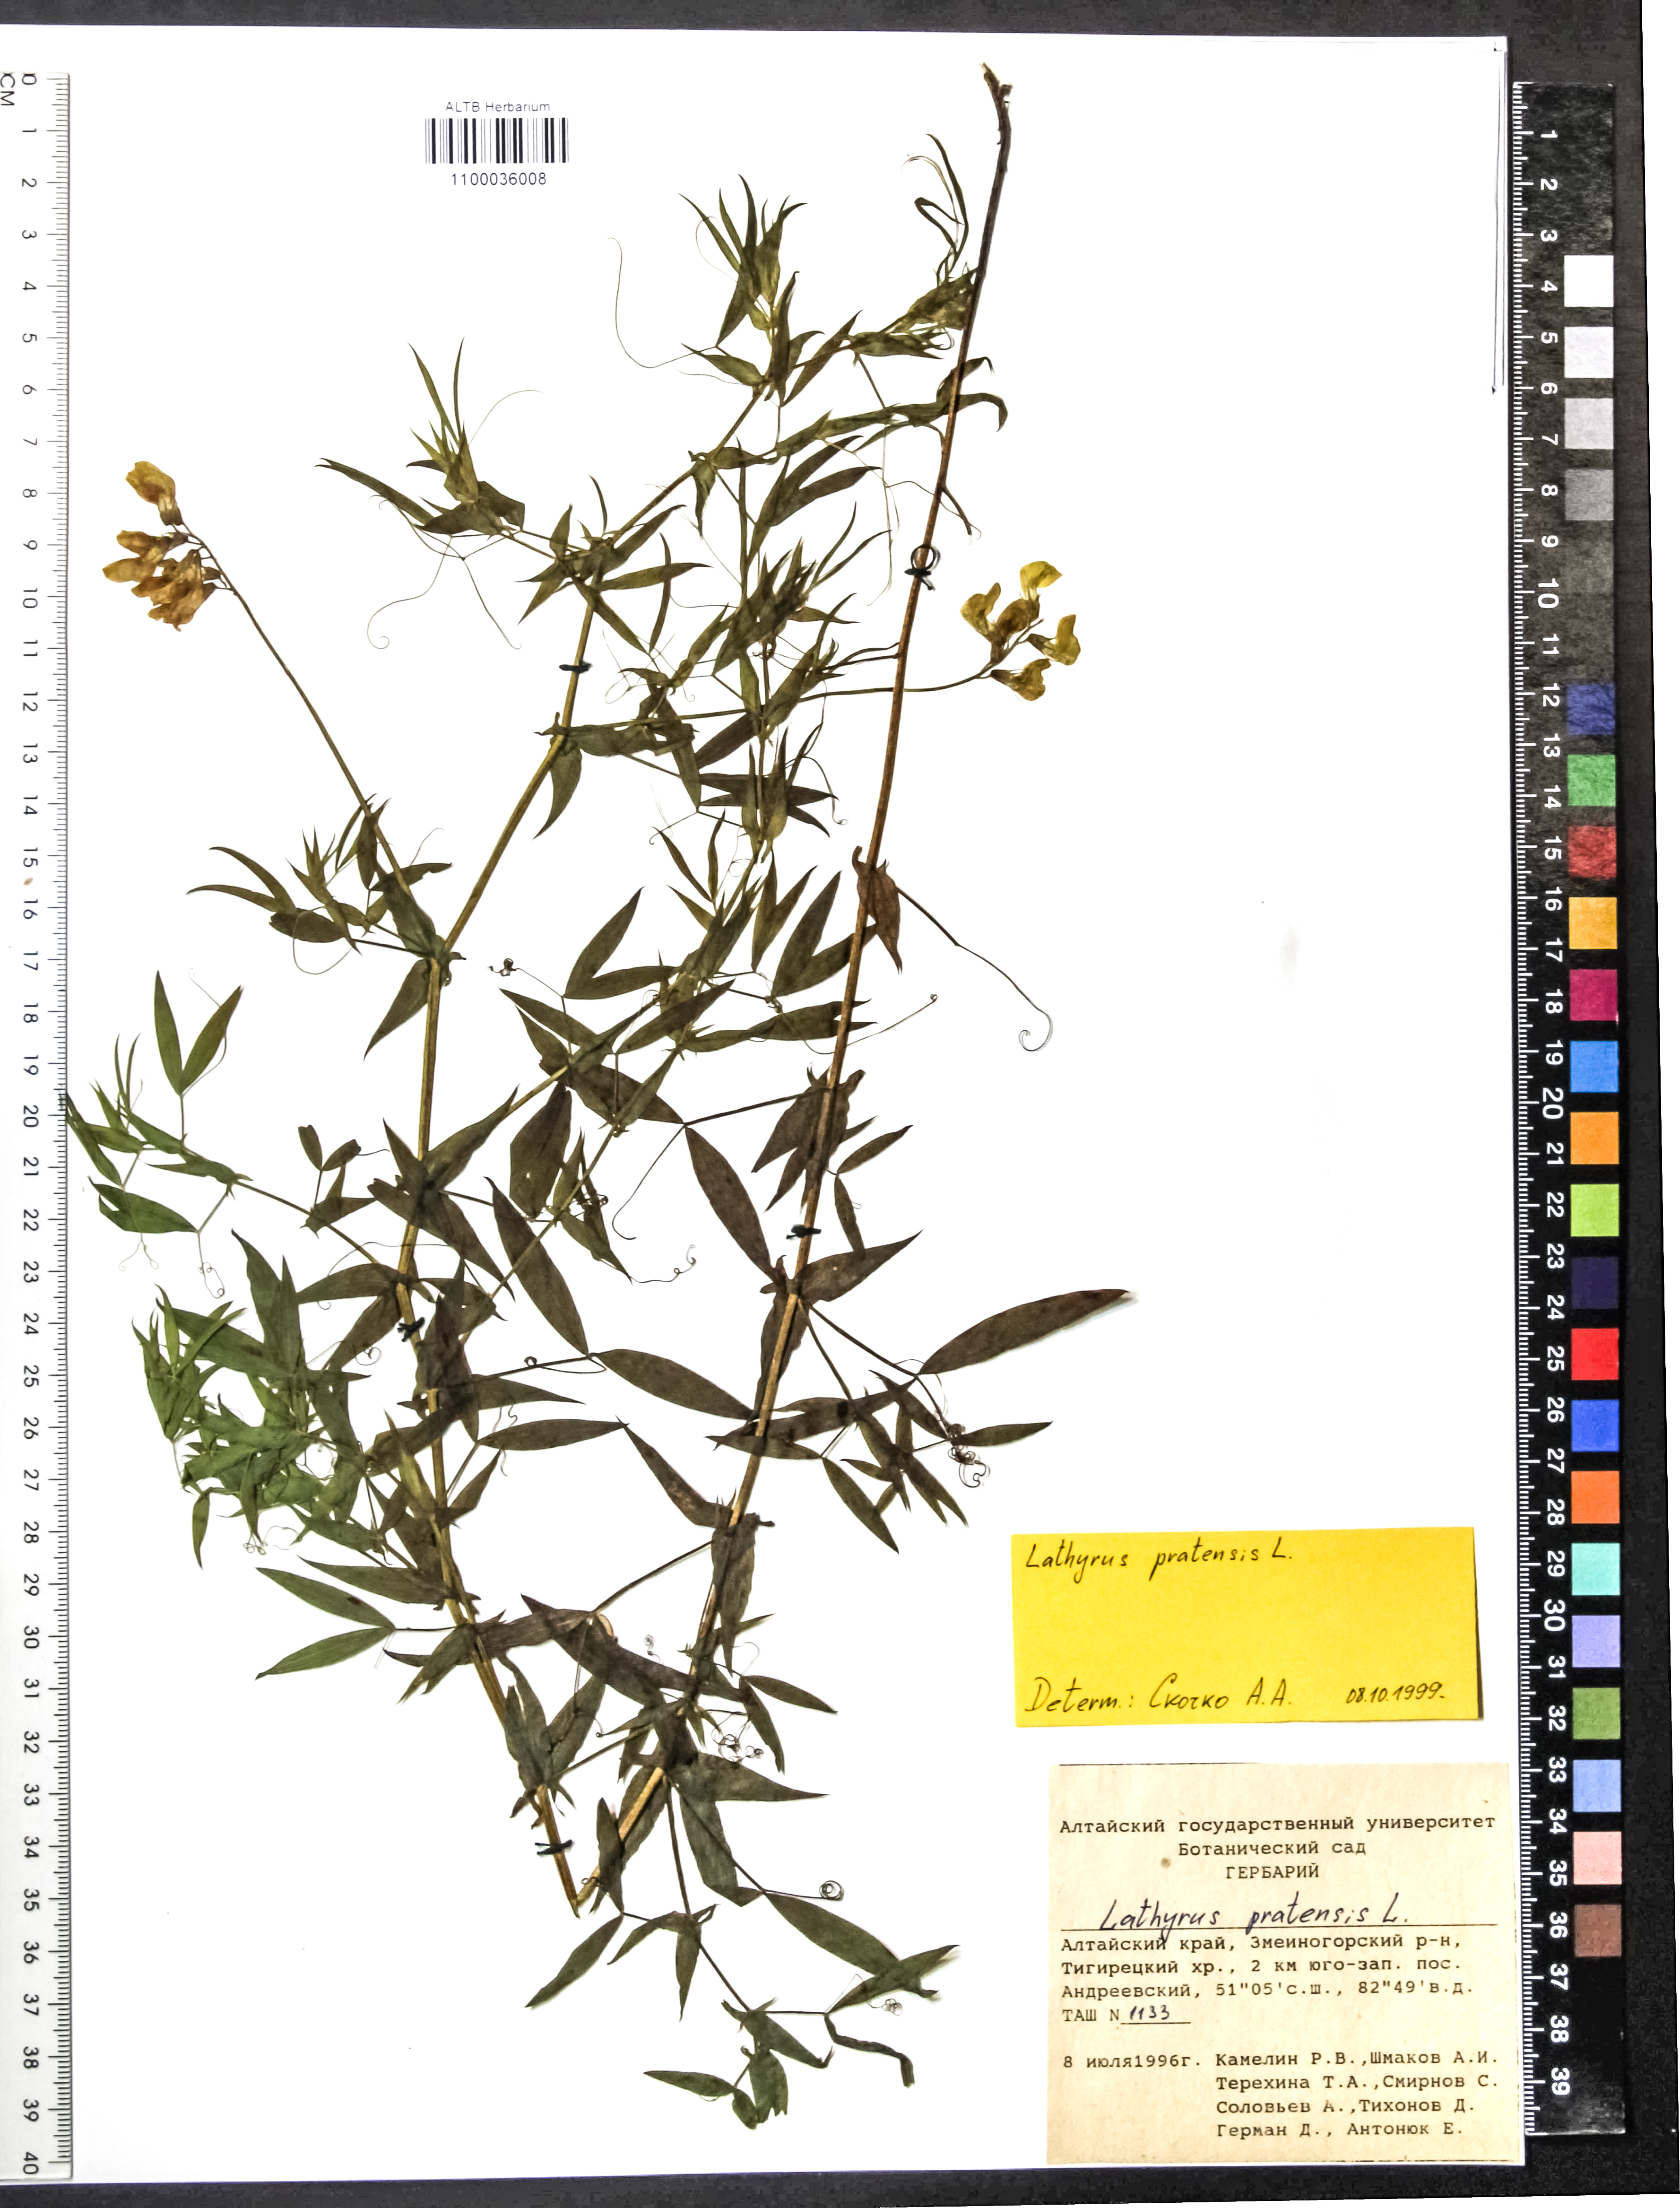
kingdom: Plantae
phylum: Tracheophyta
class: Magnoliopsida
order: Fabales
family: Fabaceae
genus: Lathyrus
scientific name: Lathyrus pratensis
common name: Meadow vetchling
